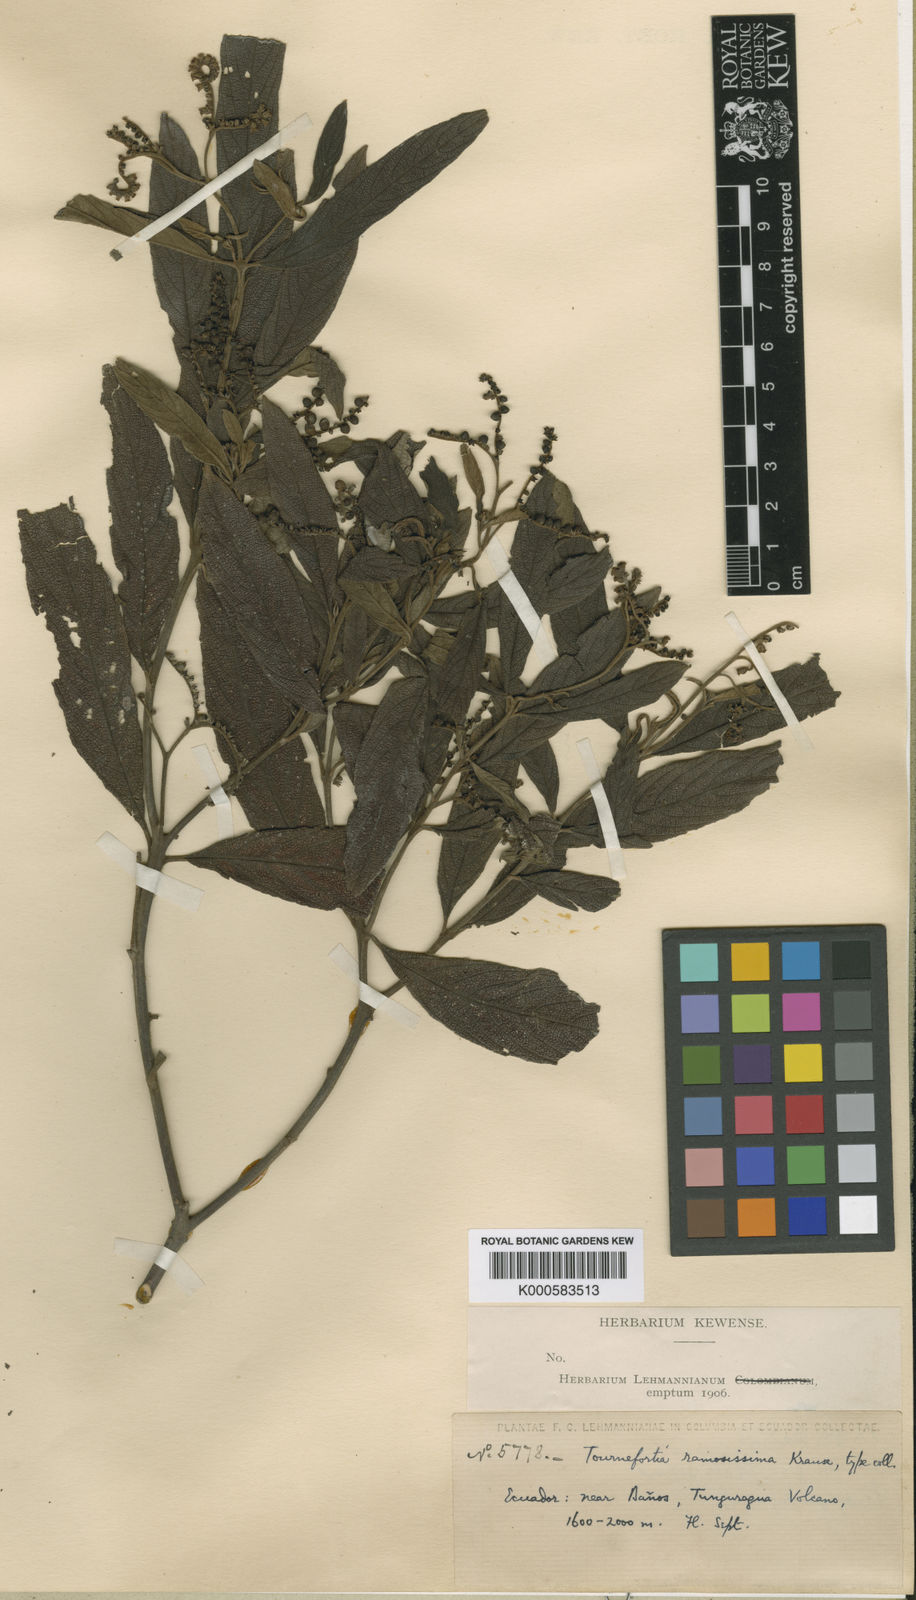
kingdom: Plantae
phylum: Tracheophyta
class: Magnoliopsida
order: Boraginales
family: Heliotropiaceae
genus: Tournefortia
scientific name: Tournefortia ramosissima
